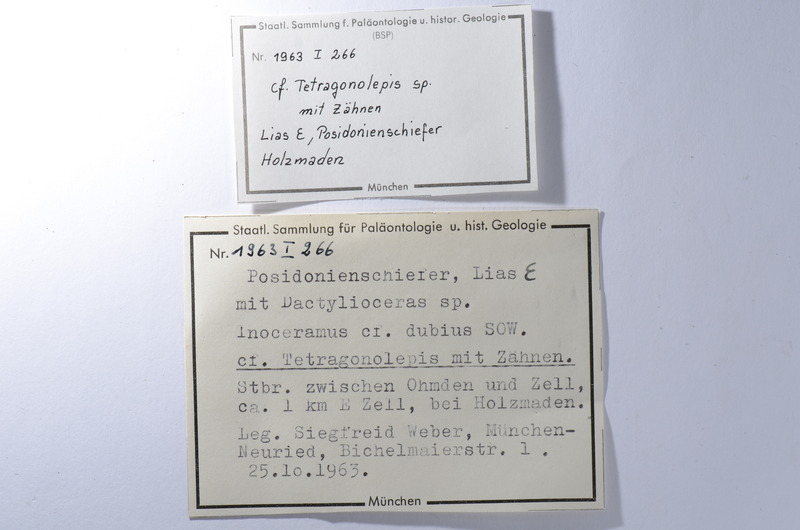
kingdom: Animalia
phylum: Chordata
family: Dapediidae
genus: Tetragonolepis
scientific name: Tetragonolepis
